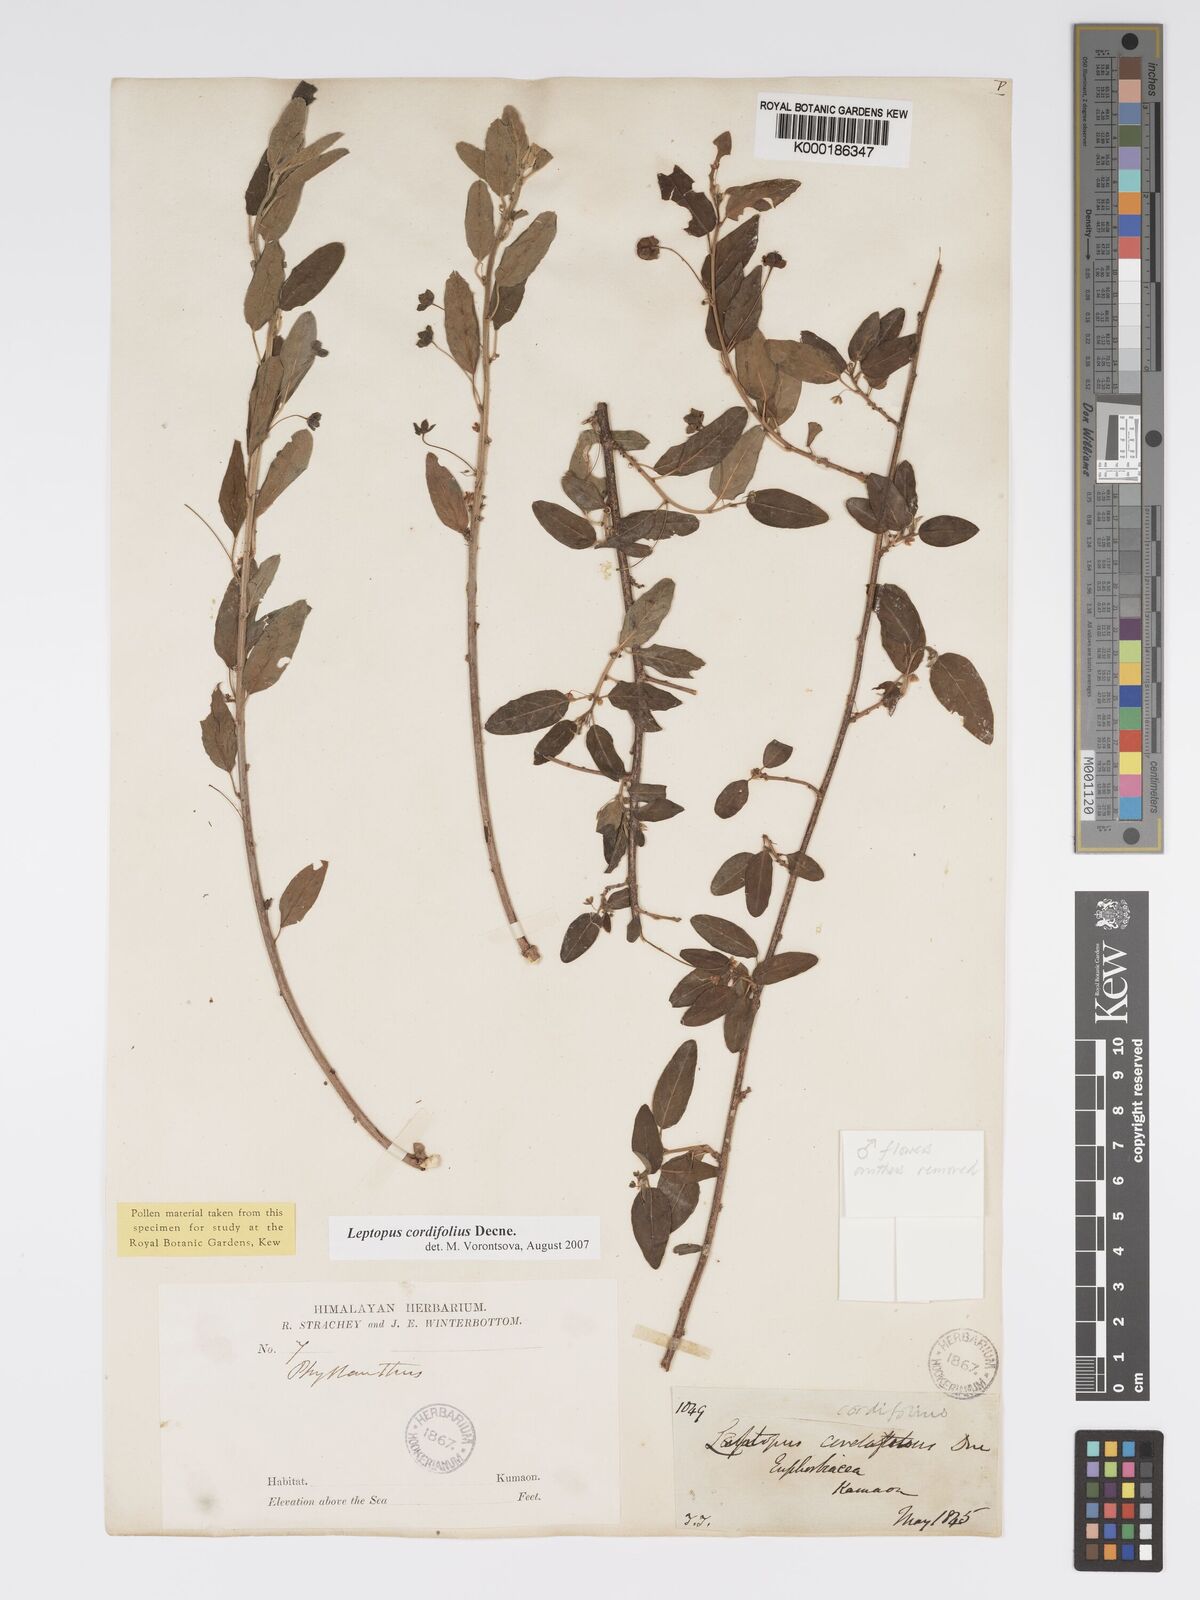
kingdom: Plantae
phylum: Tracheophyta
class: Magnoliopsida
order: Malpighiales
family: Phyllanthaceae
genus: Leptopus
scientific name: Leptopus cordifolius
